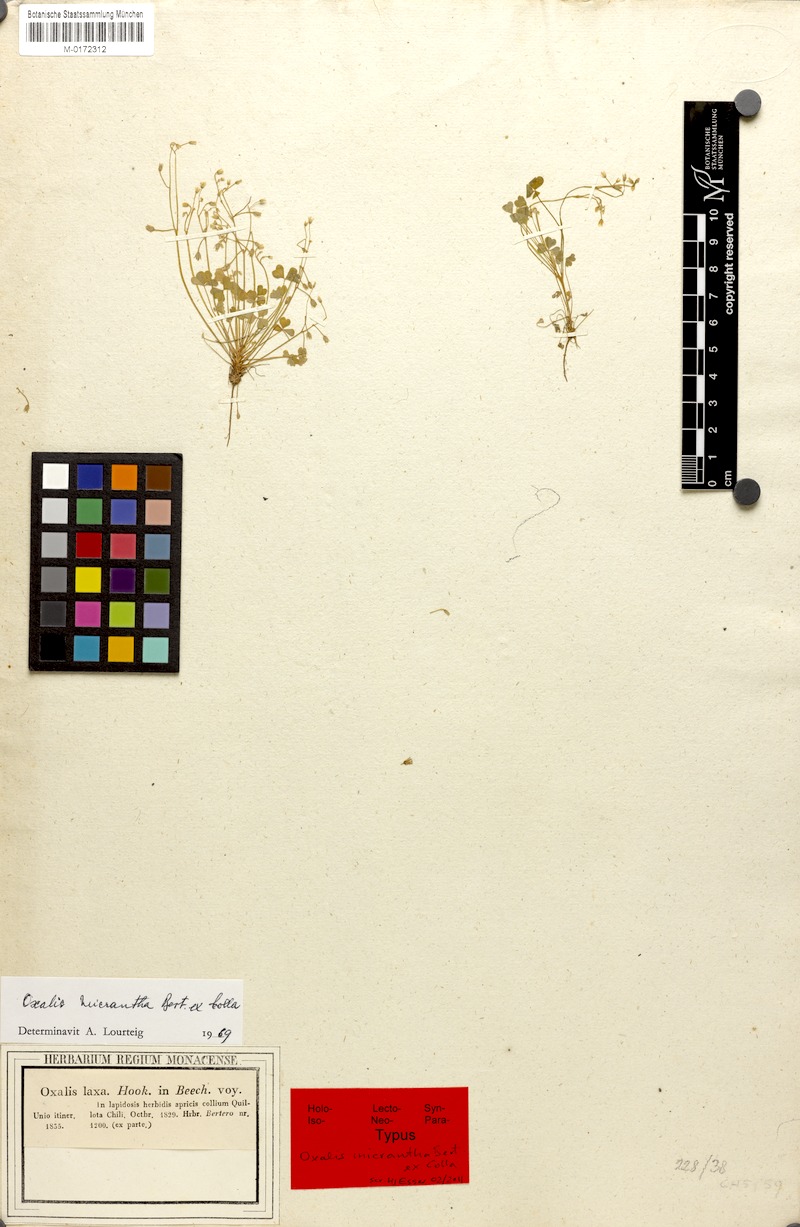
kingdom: Plantae
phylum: Tracheophyta
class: Magnoliopsida
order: Oxalidales
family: Oxalidaceae
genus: Oxalis
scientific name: Oxalis micrantha
